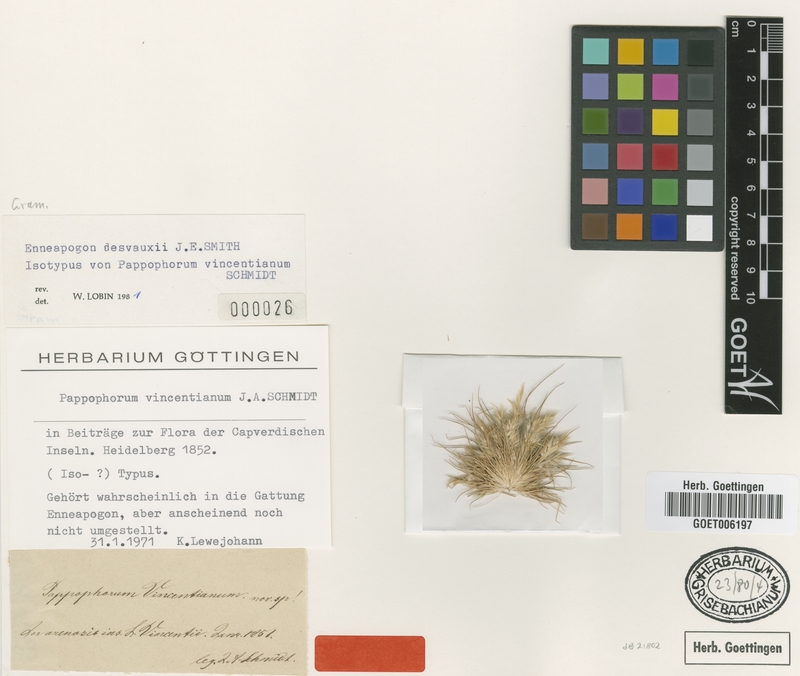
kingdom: Plantae
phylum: Tracheophyta
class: Liliopsida
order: Poales
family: Poaceae
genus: Enneapogon
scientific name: Enneapogon desvauxii
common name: Feather pappus grass
